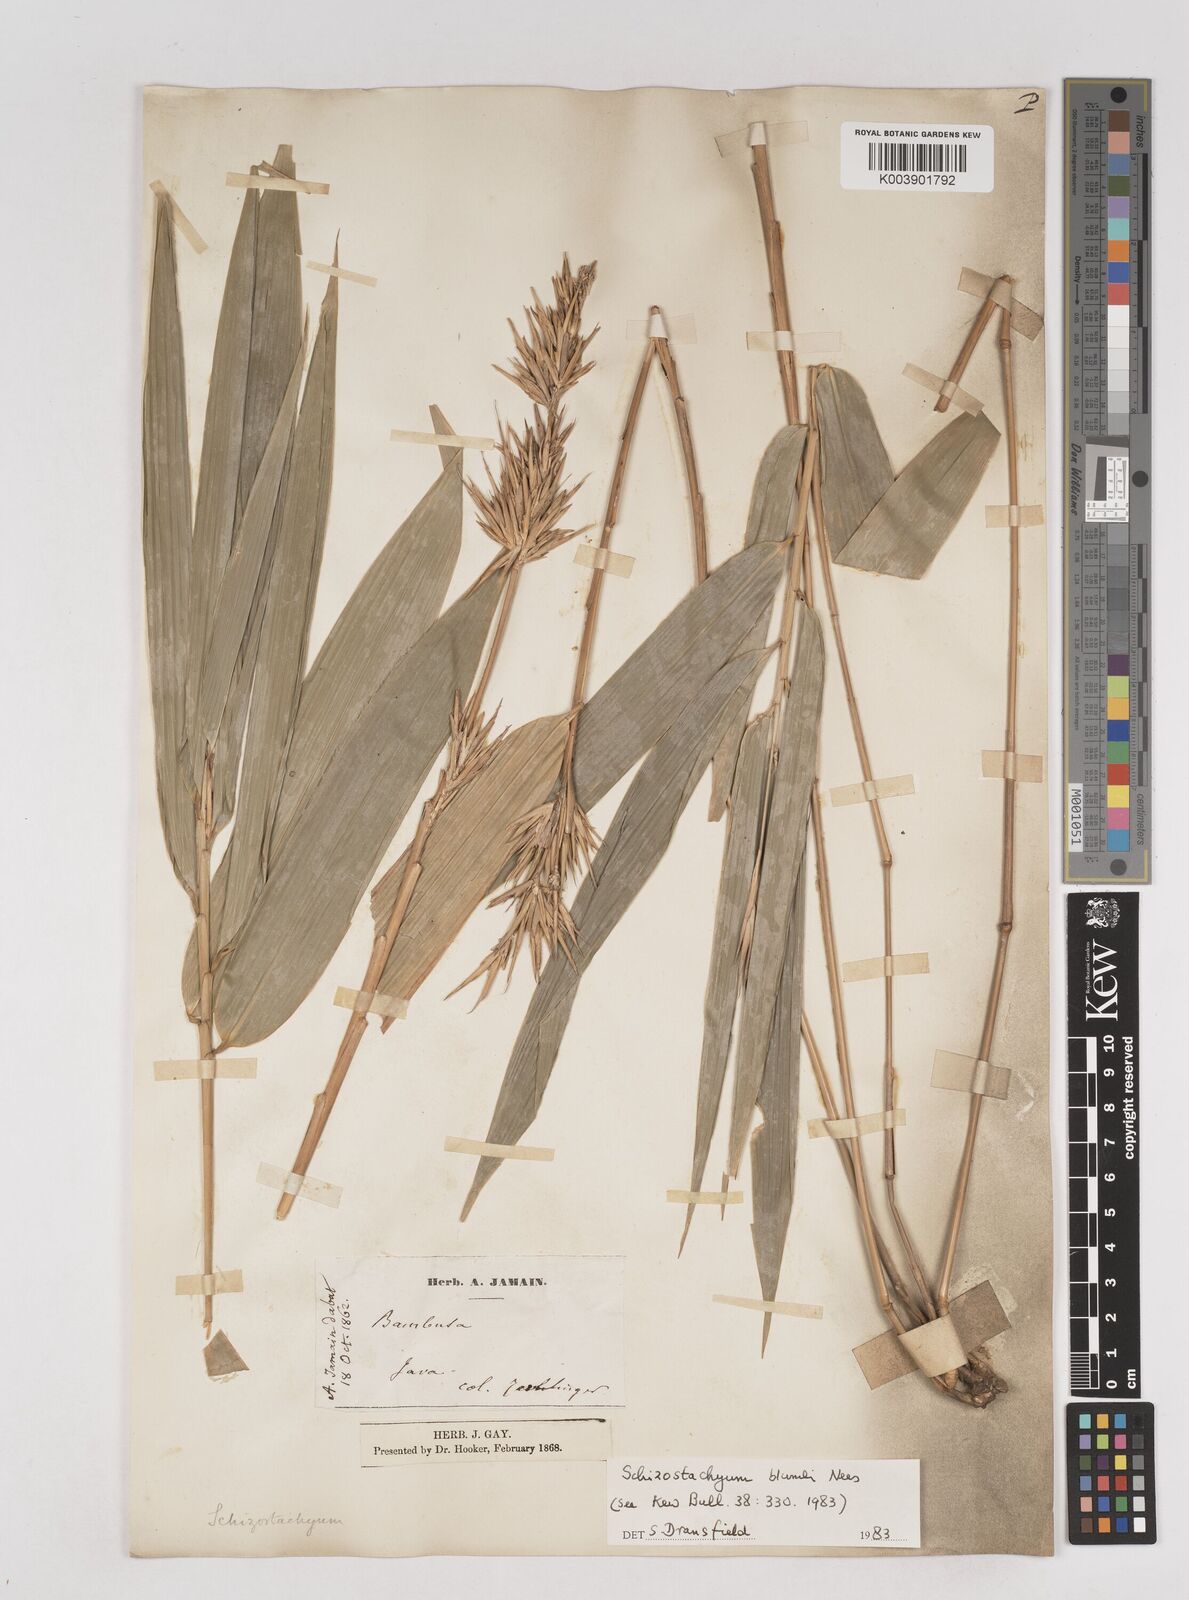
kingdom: Plantae
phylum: Tracheophyta
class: Liliopsida
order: Poales
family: Poaceae
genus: Schizostachyum
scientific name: Schizostachyum blumei
